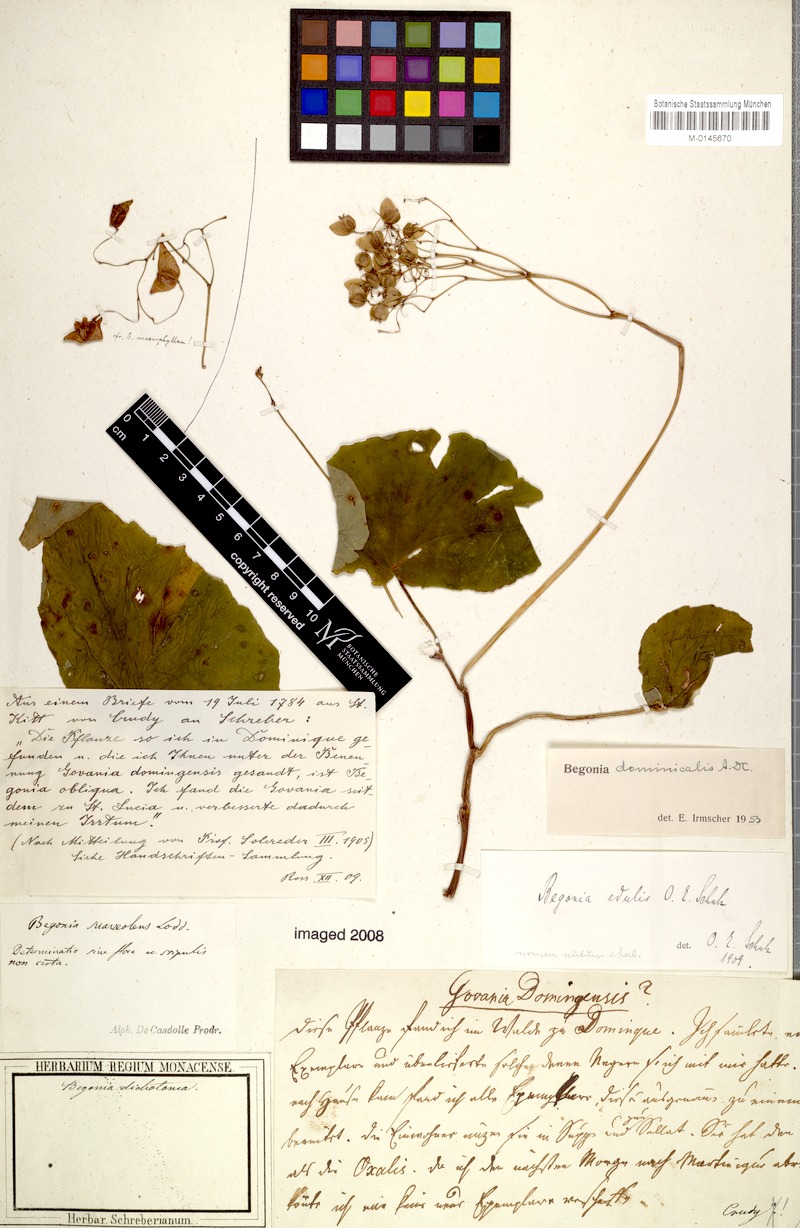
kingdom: Plantae
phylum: Tracheophyta
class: Magnoliopsida
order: Cucurbitales
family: Begoniaceae
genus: Begonia
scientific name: Begonia obliqua
